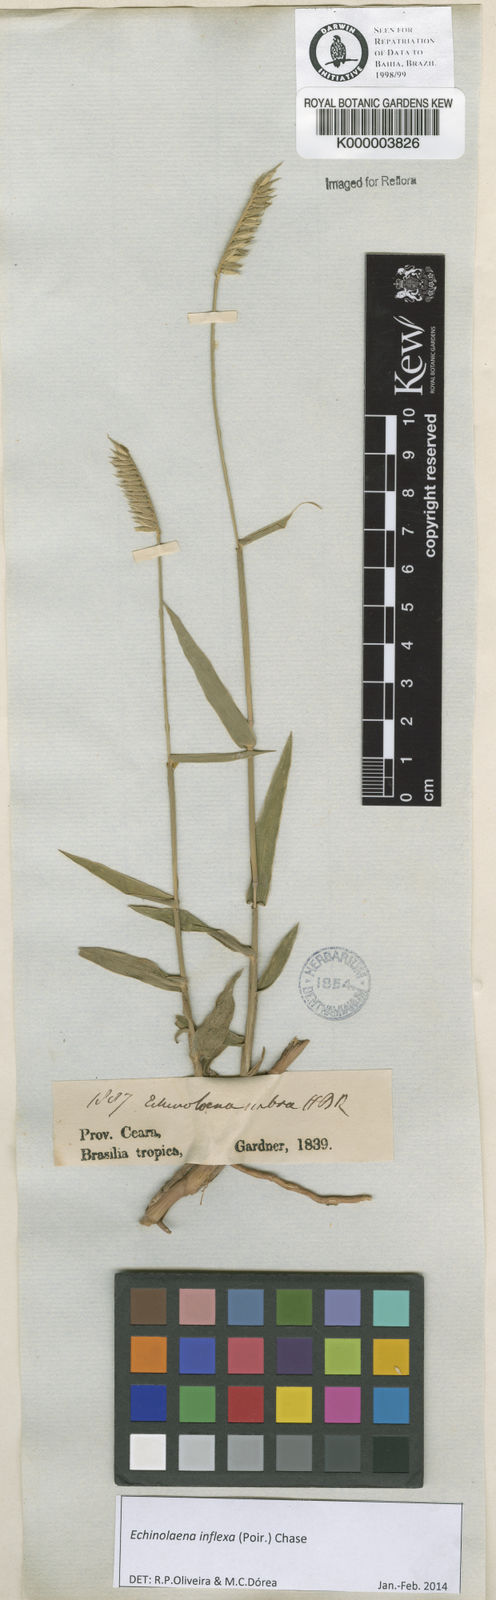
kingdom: Plantae
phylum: Tracheophyta
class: Liliopsida
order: Poales
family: Poaceae
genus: Echinolaena
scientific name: Echinolaena inflexa
